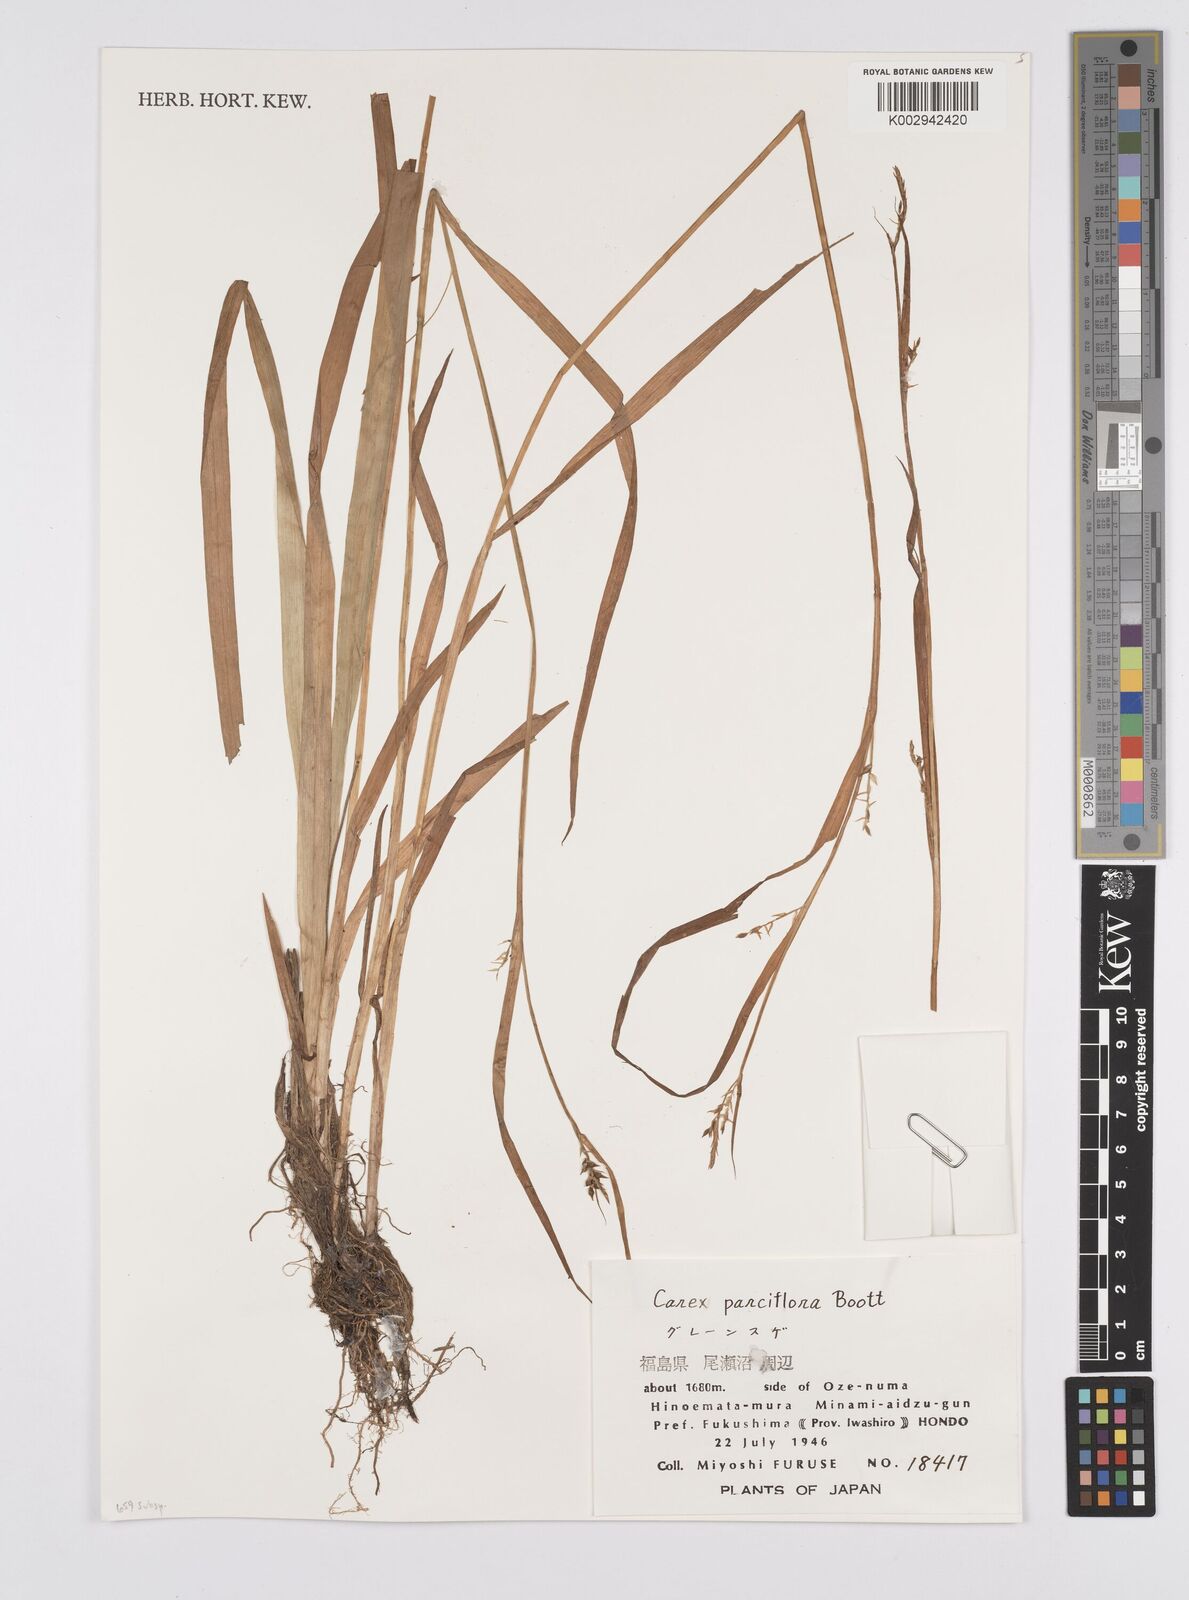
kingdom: Plantae
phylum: Tracheophyta
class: Liliopsida
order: Poales
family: Cyperaceae
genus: Carex
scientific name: Carex parciflora
